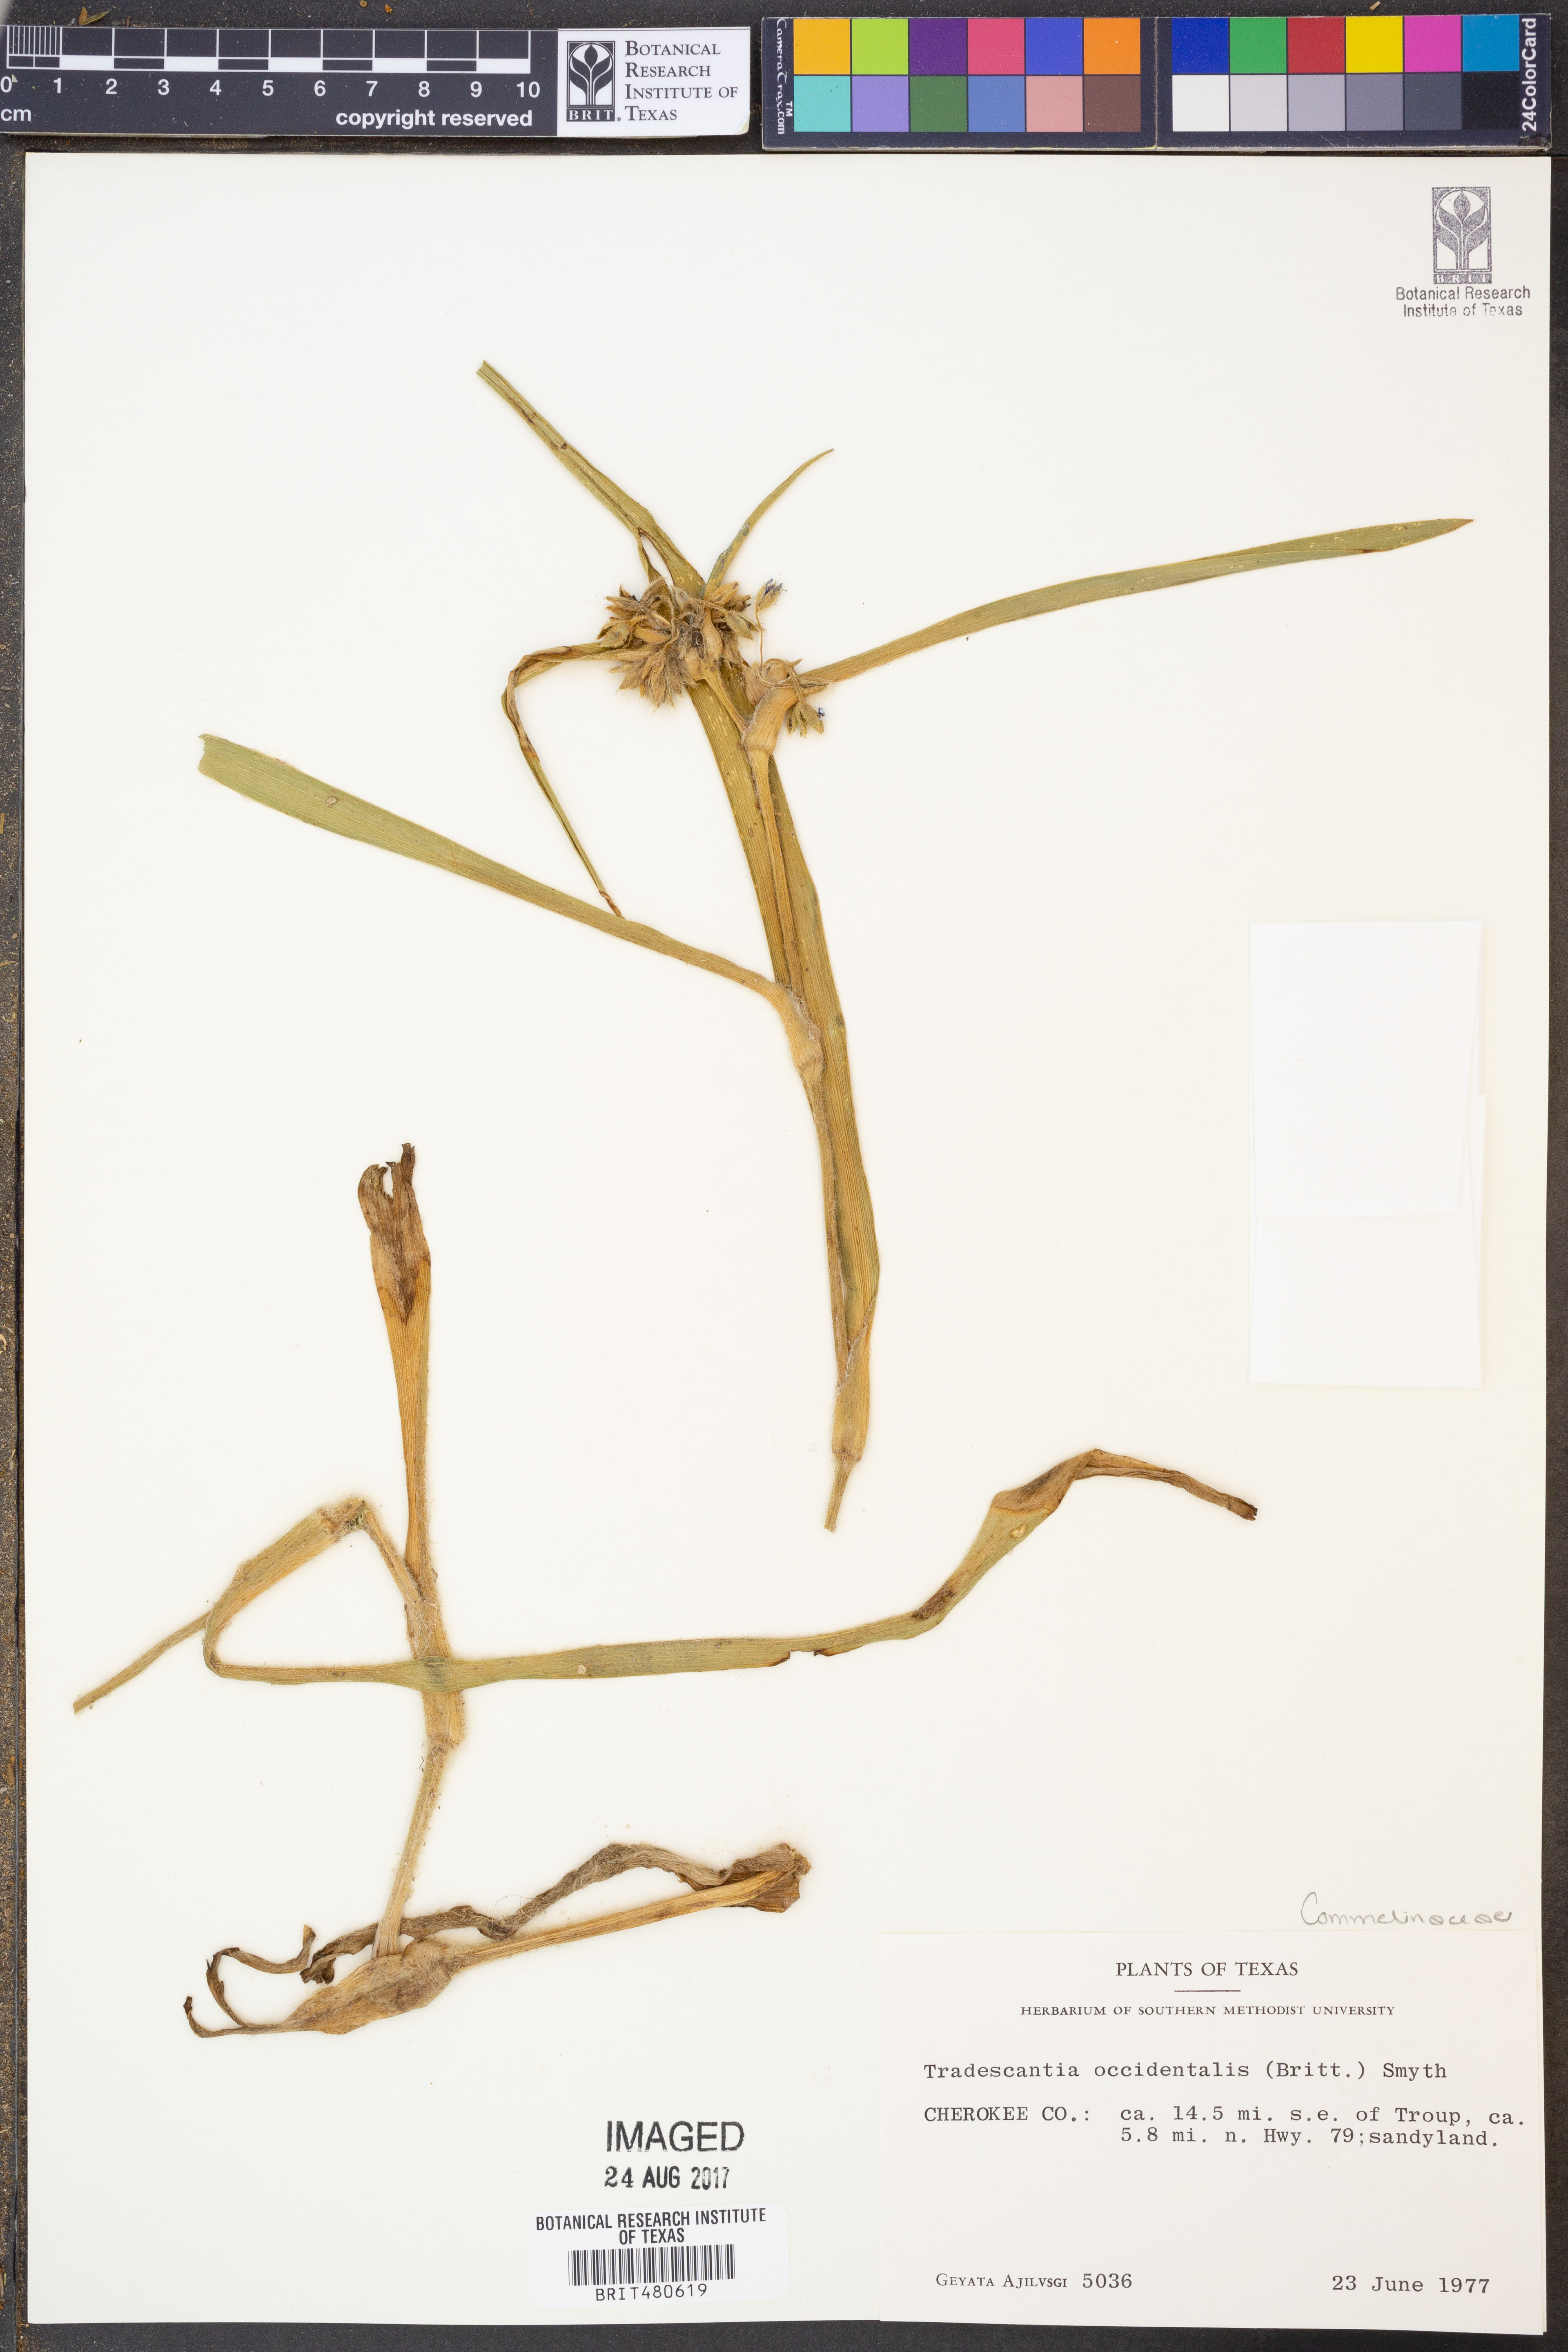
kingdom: Plantae
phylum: Tracheophyta
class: Liliopsida
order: Commelinales
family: Commelinaceae
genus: Tradescantia
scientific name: Tradescantia occidentalis
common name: Prairie spiderwort
